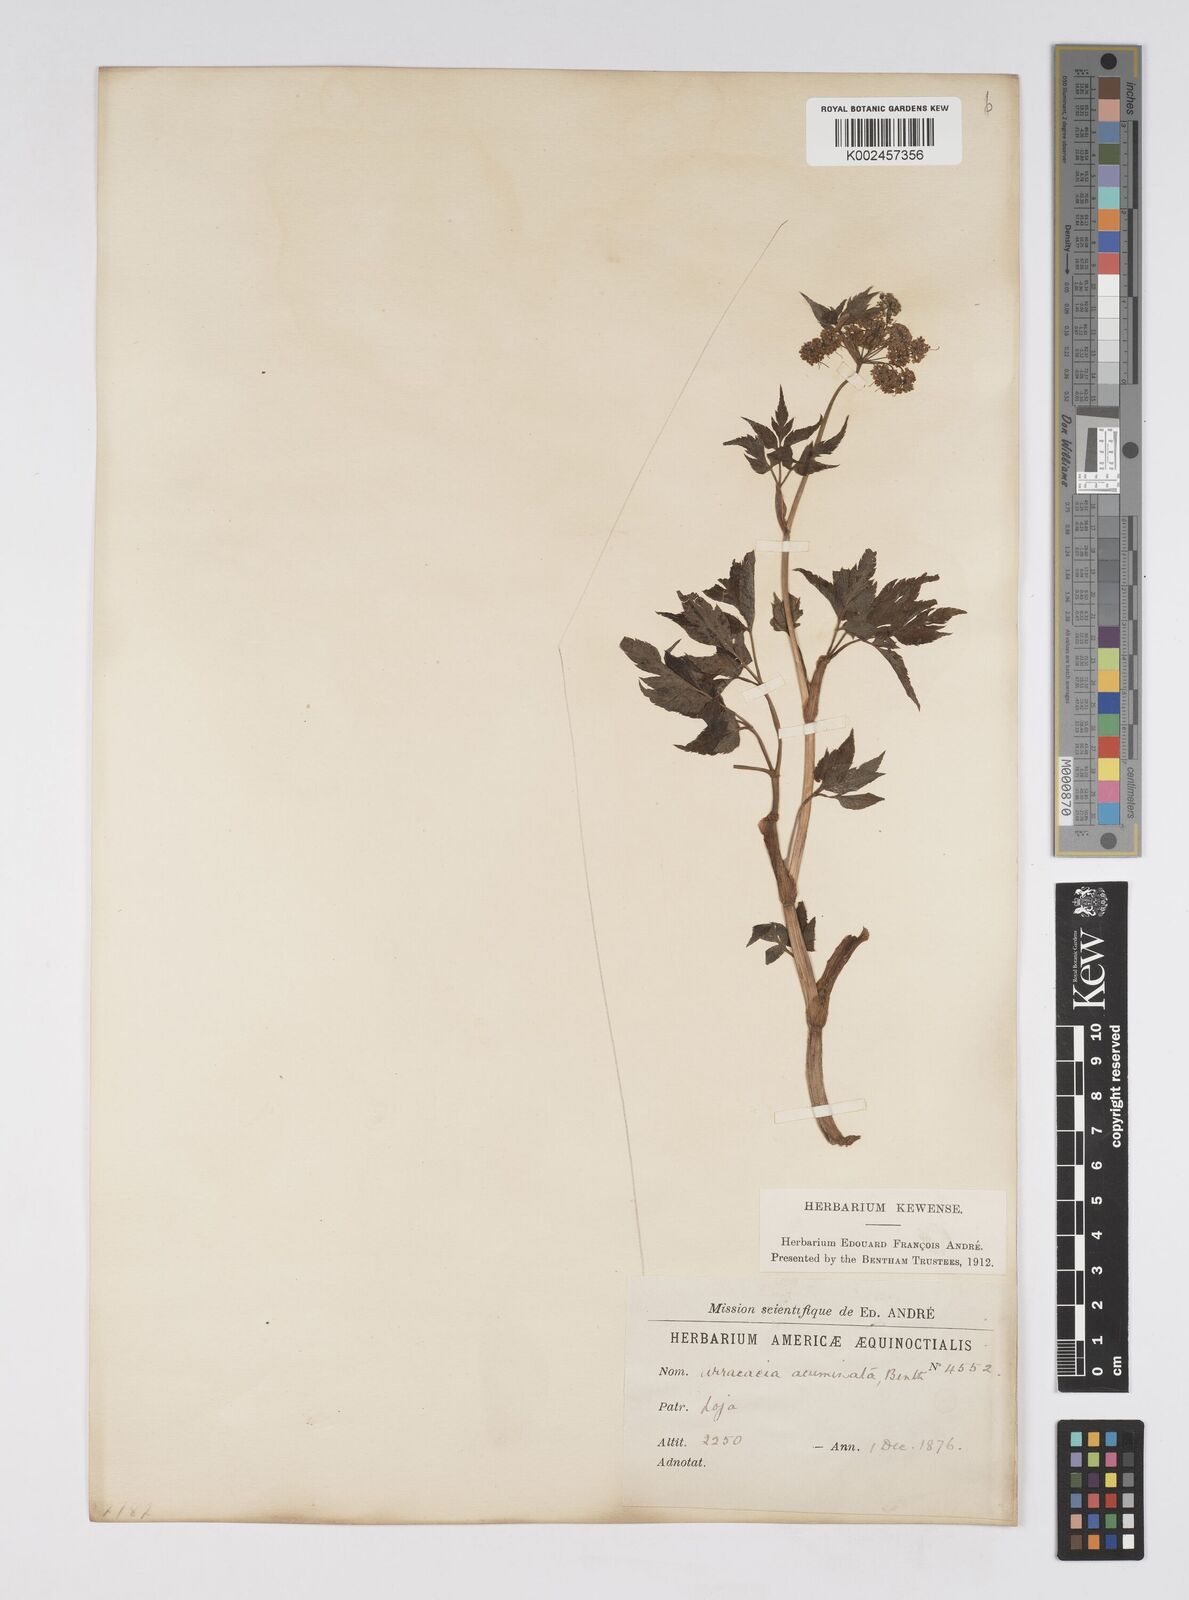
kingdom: Plantae
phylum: Tracheophyta
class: Magnoliopsida
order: Apiales
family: Apiaceae
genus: Neonelsonia
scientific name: Neonelsonia acuminata
